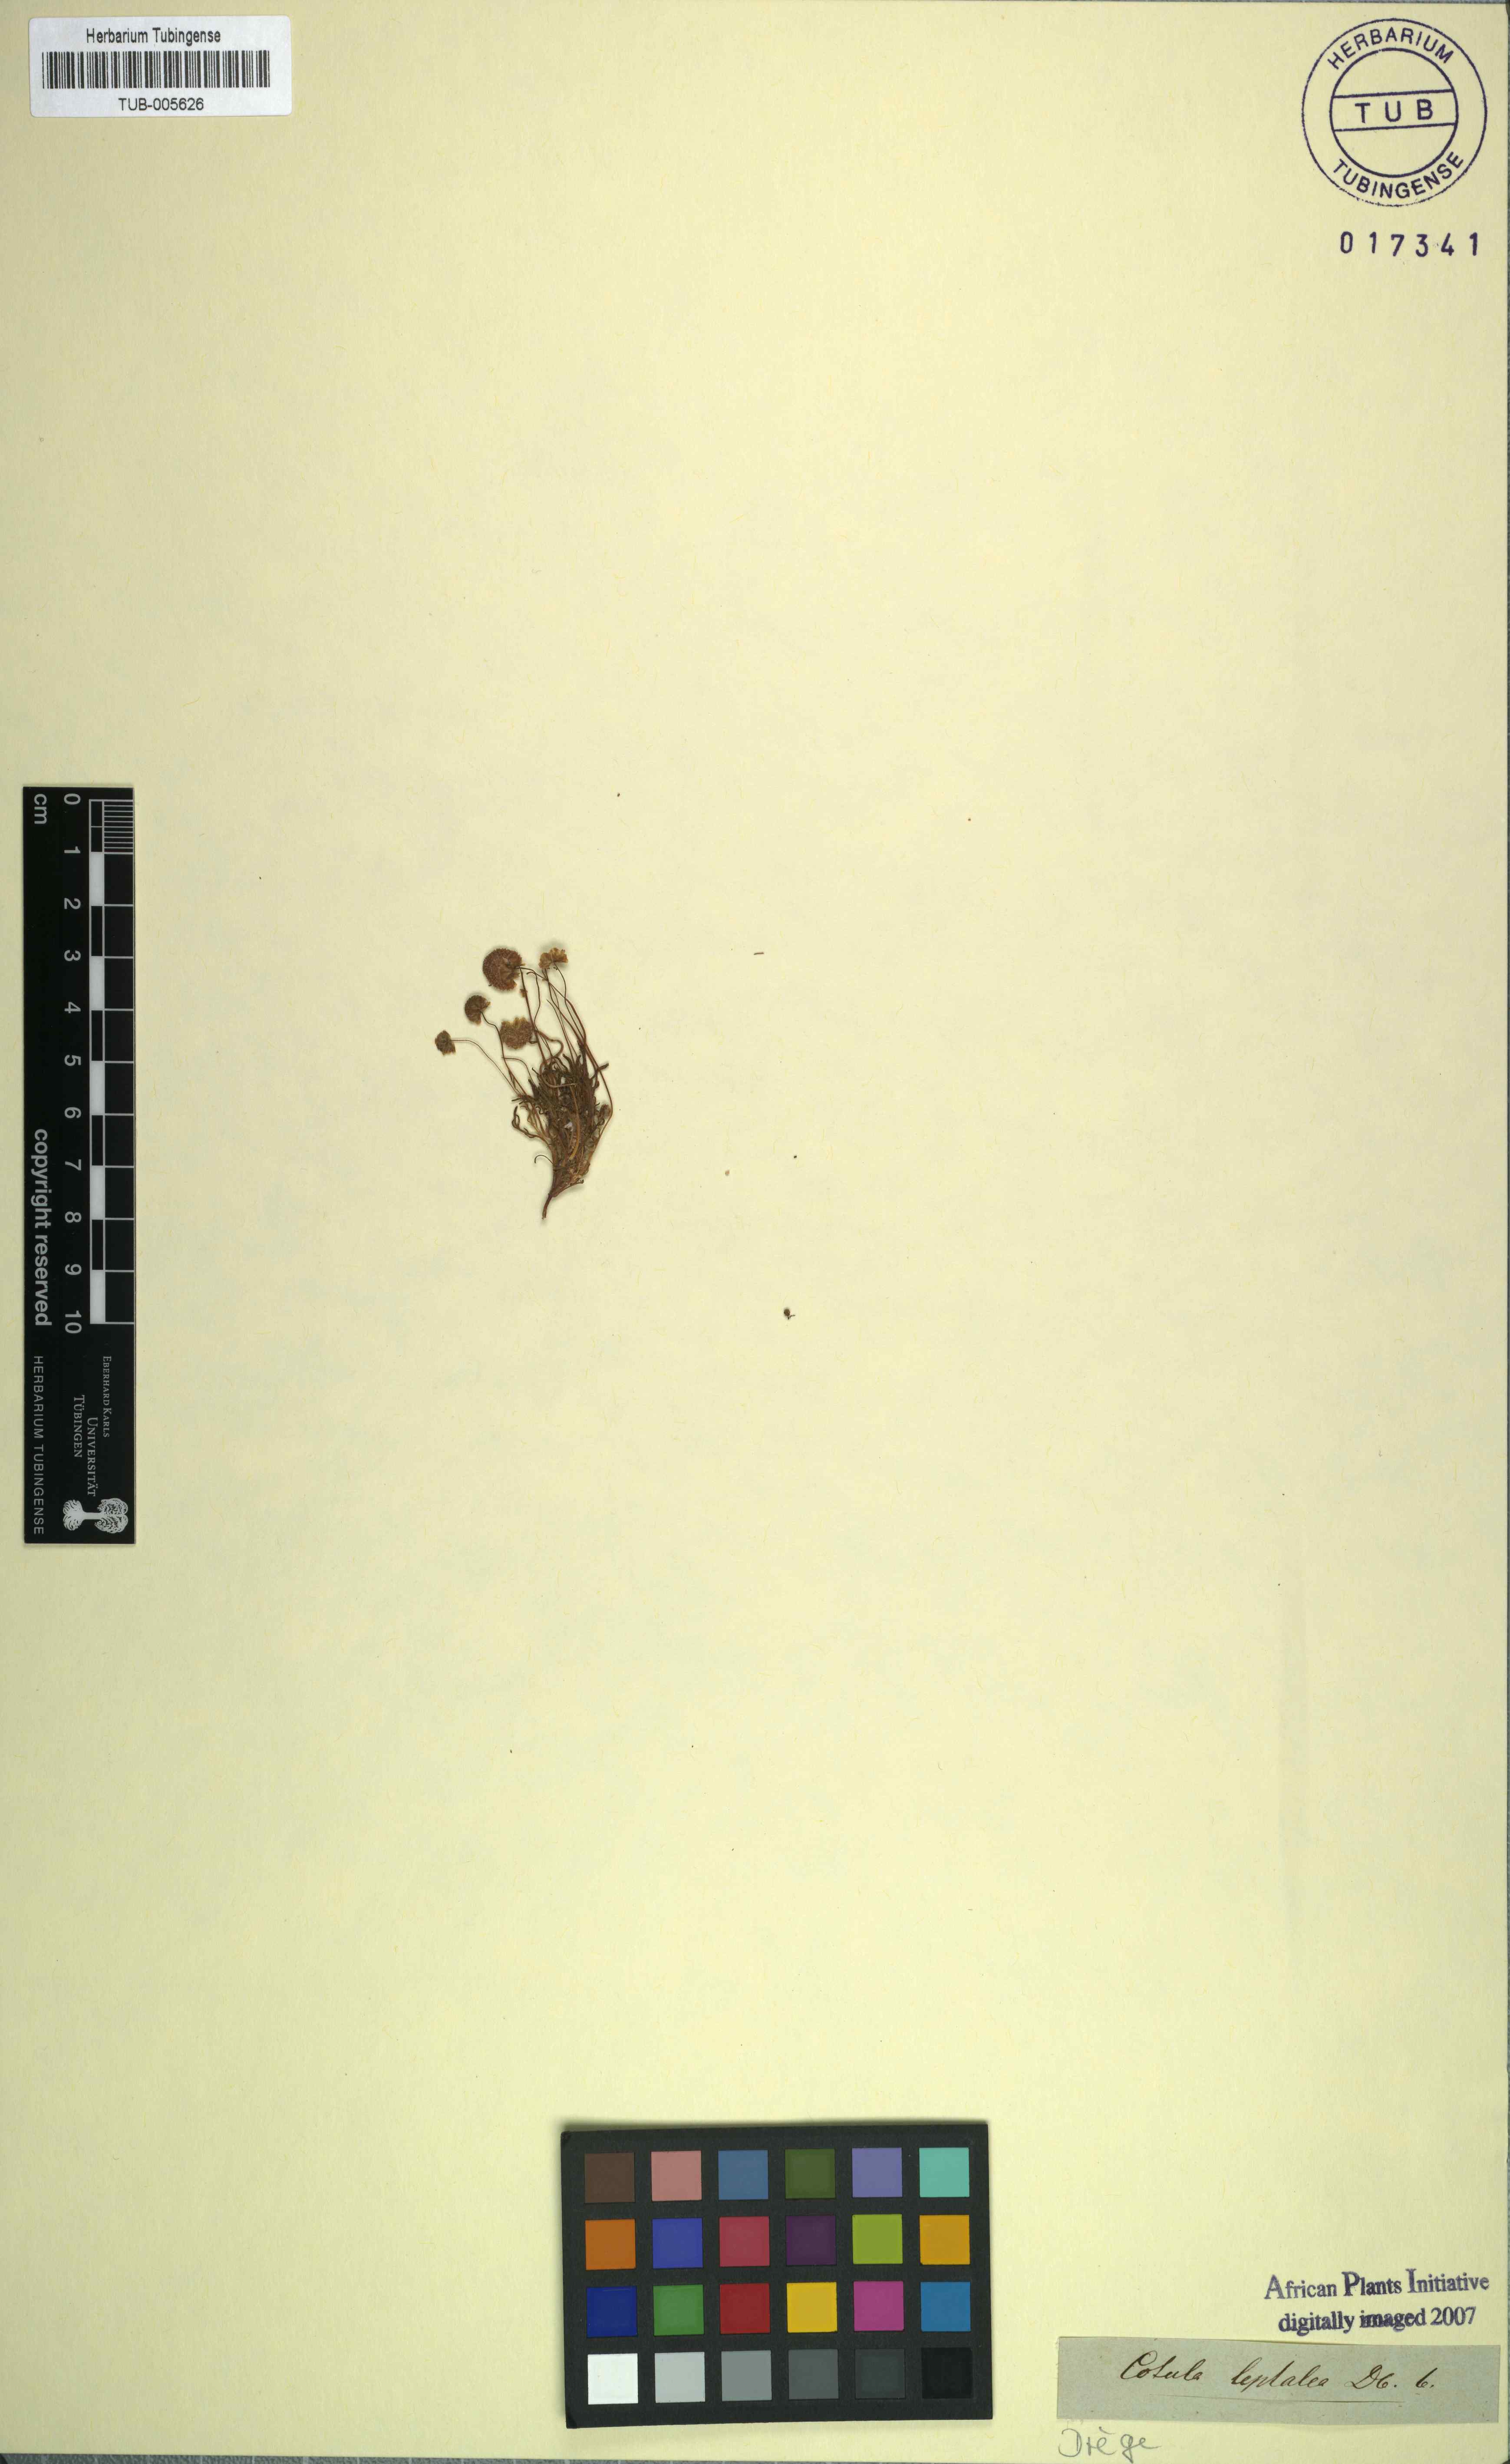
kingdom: Plantae
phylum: Tracheophyta
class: Magnoliopsida
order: Asterales
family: Asteraceae
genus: Cotula
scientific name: Cotula leptalea
